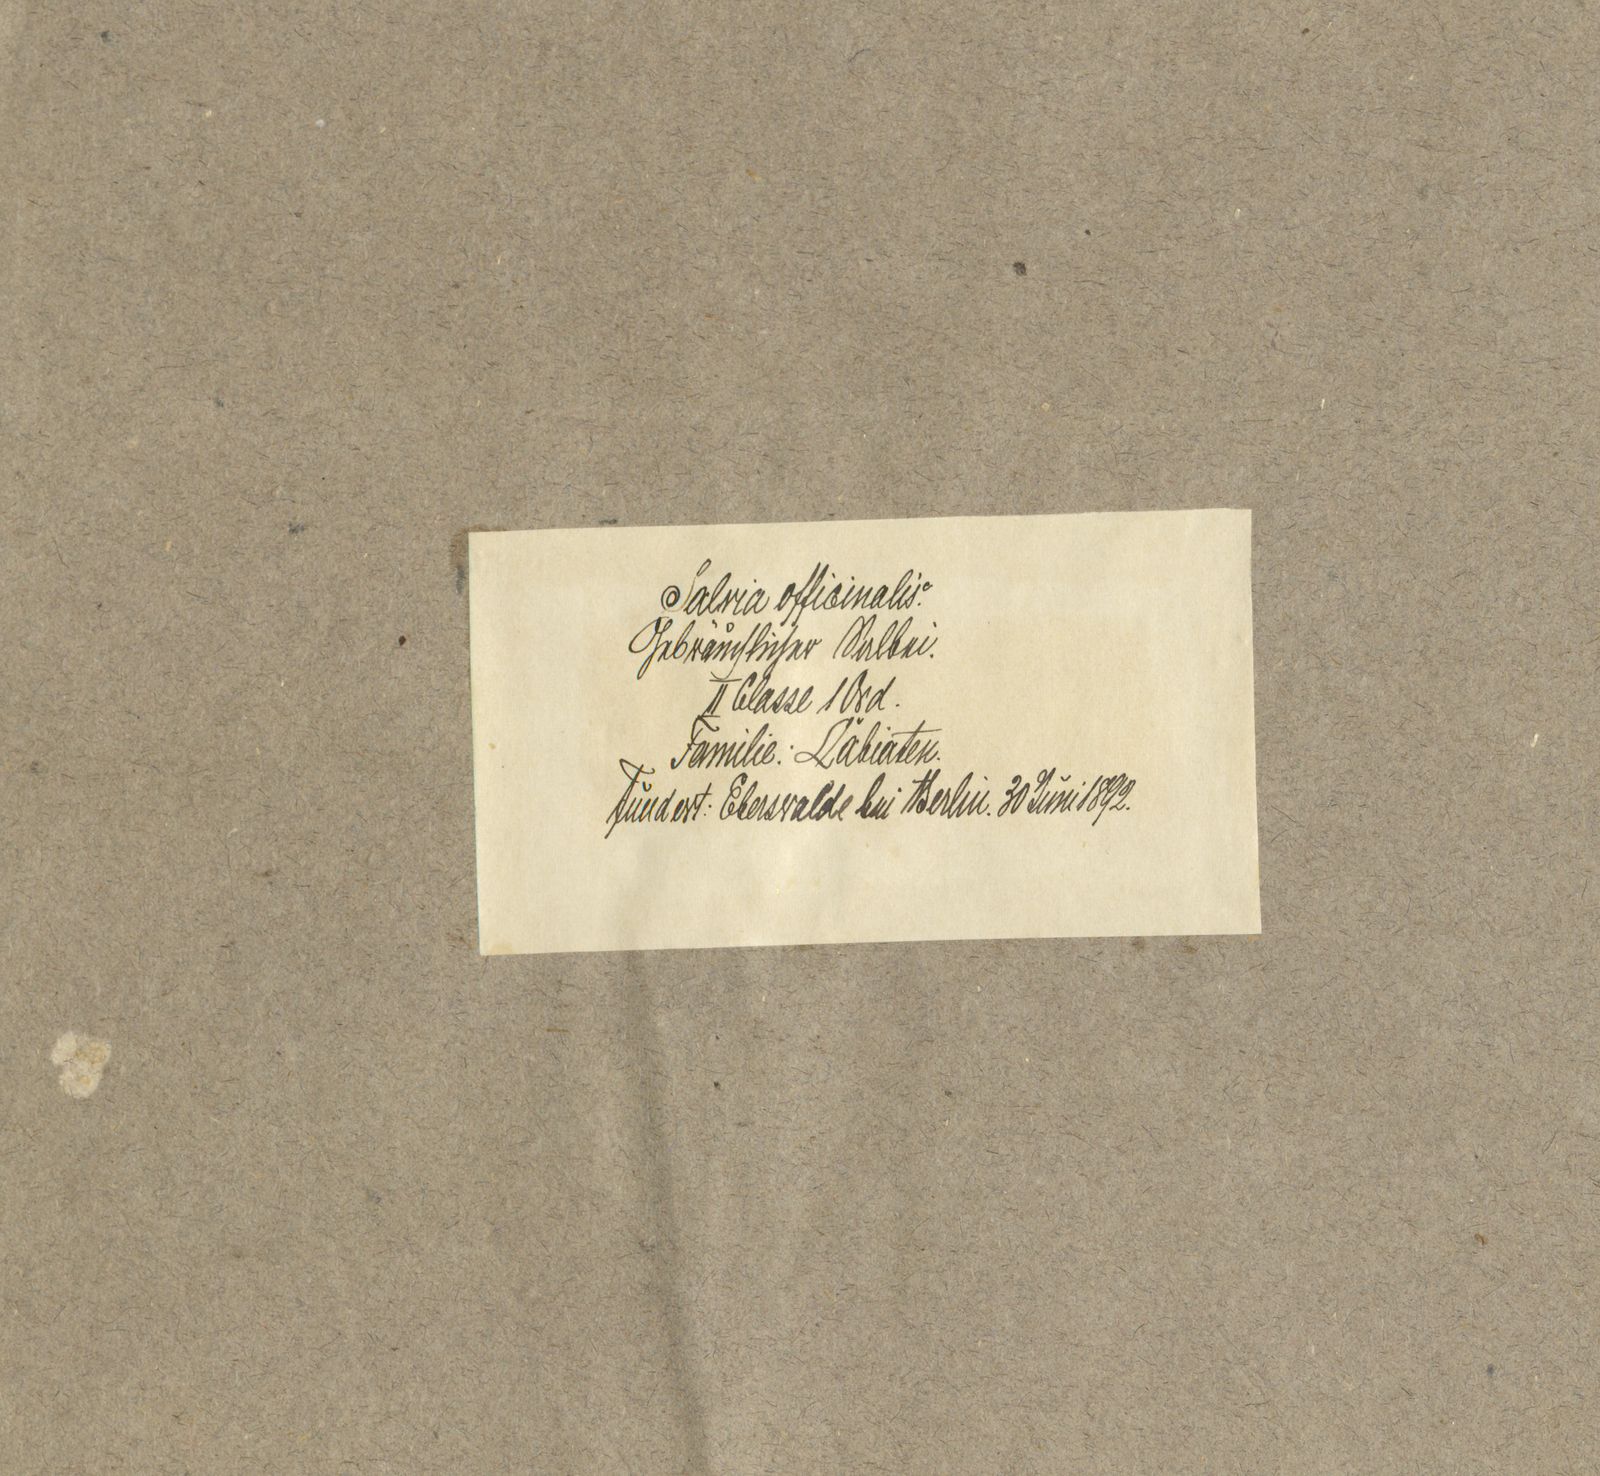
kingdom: Plantae
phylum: Tracheophyta
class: Magnoliopsida
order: Lamiales
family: Lamiaceae
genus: Salvia
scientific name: Salvia officinalis
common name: Sage
